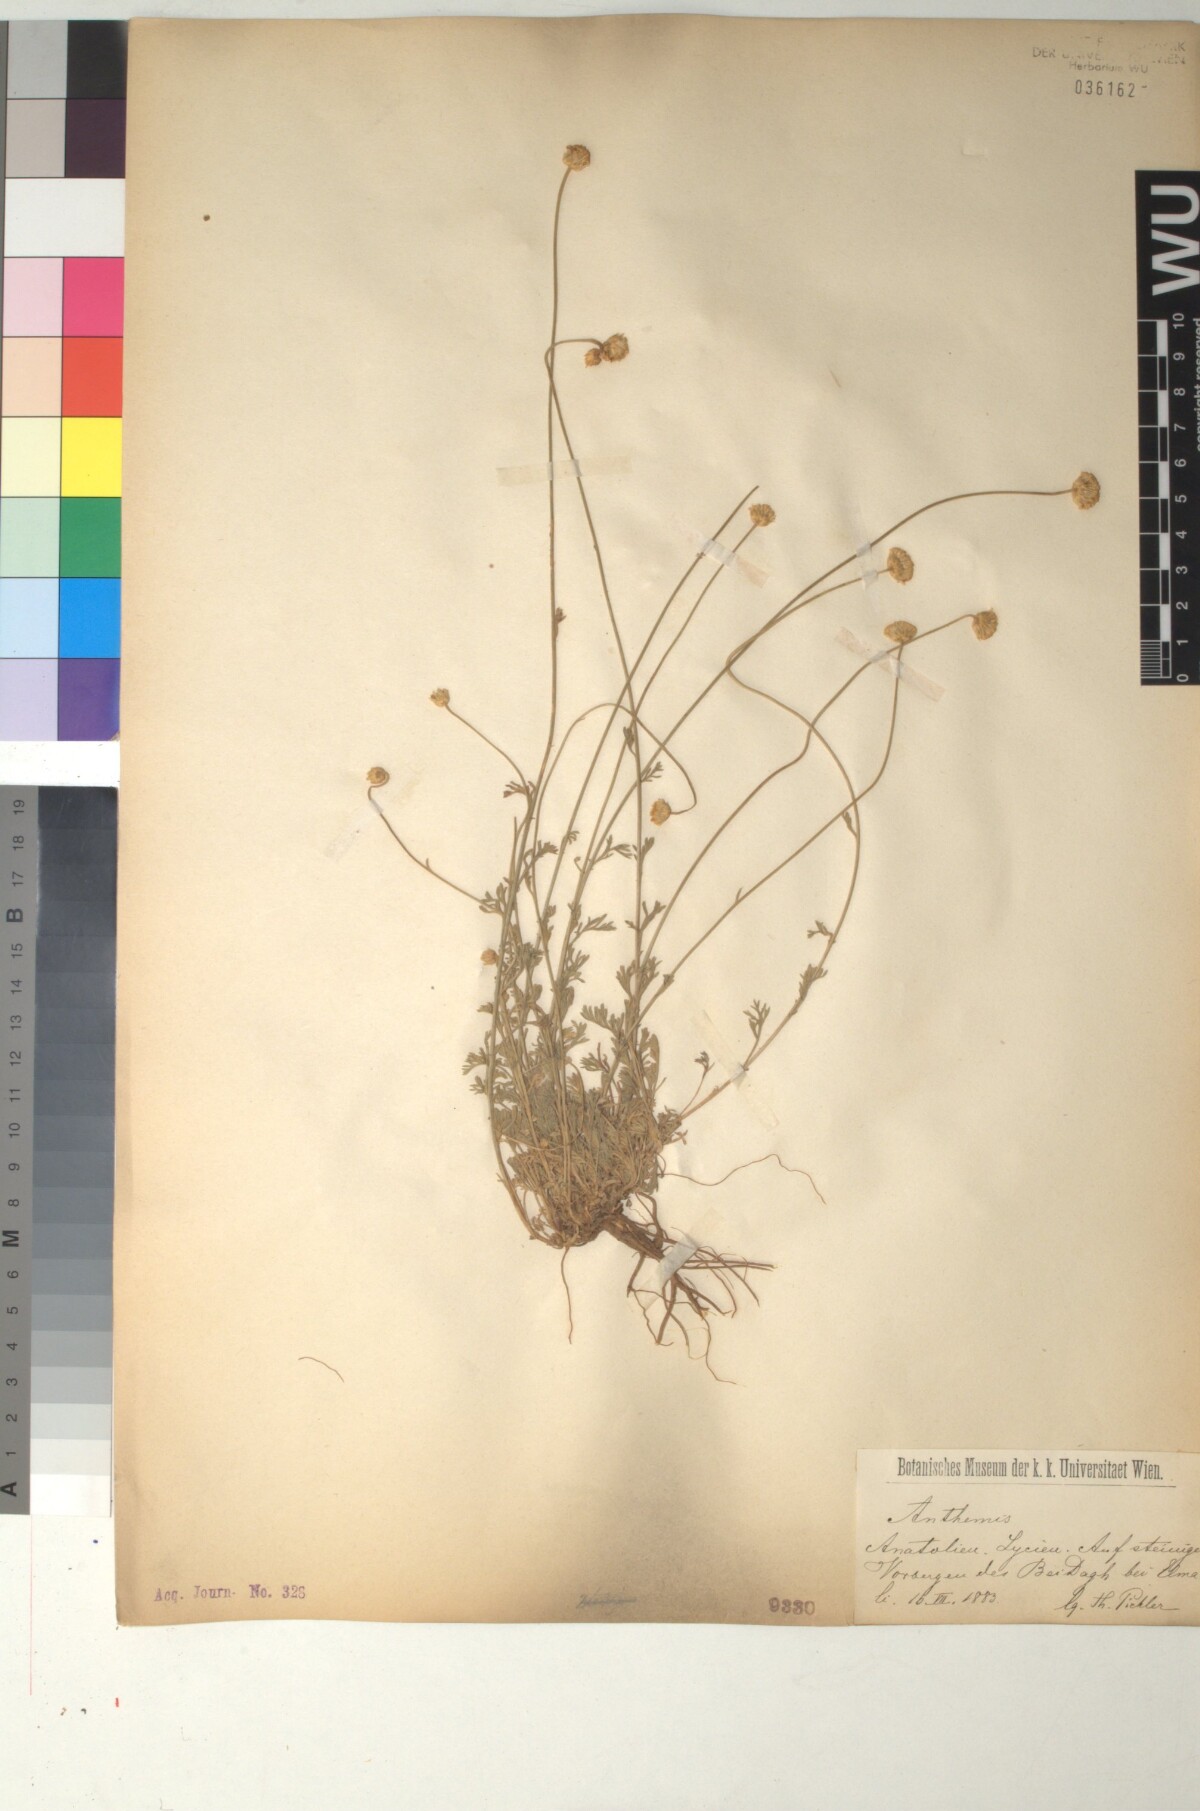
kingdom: Plantae
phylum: Tracheophyta
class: Magnoliopsida
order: Asterales
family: Asteraceae
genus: Anthemis
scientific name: Anthemis cretica
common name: Mountain dog-daisy
